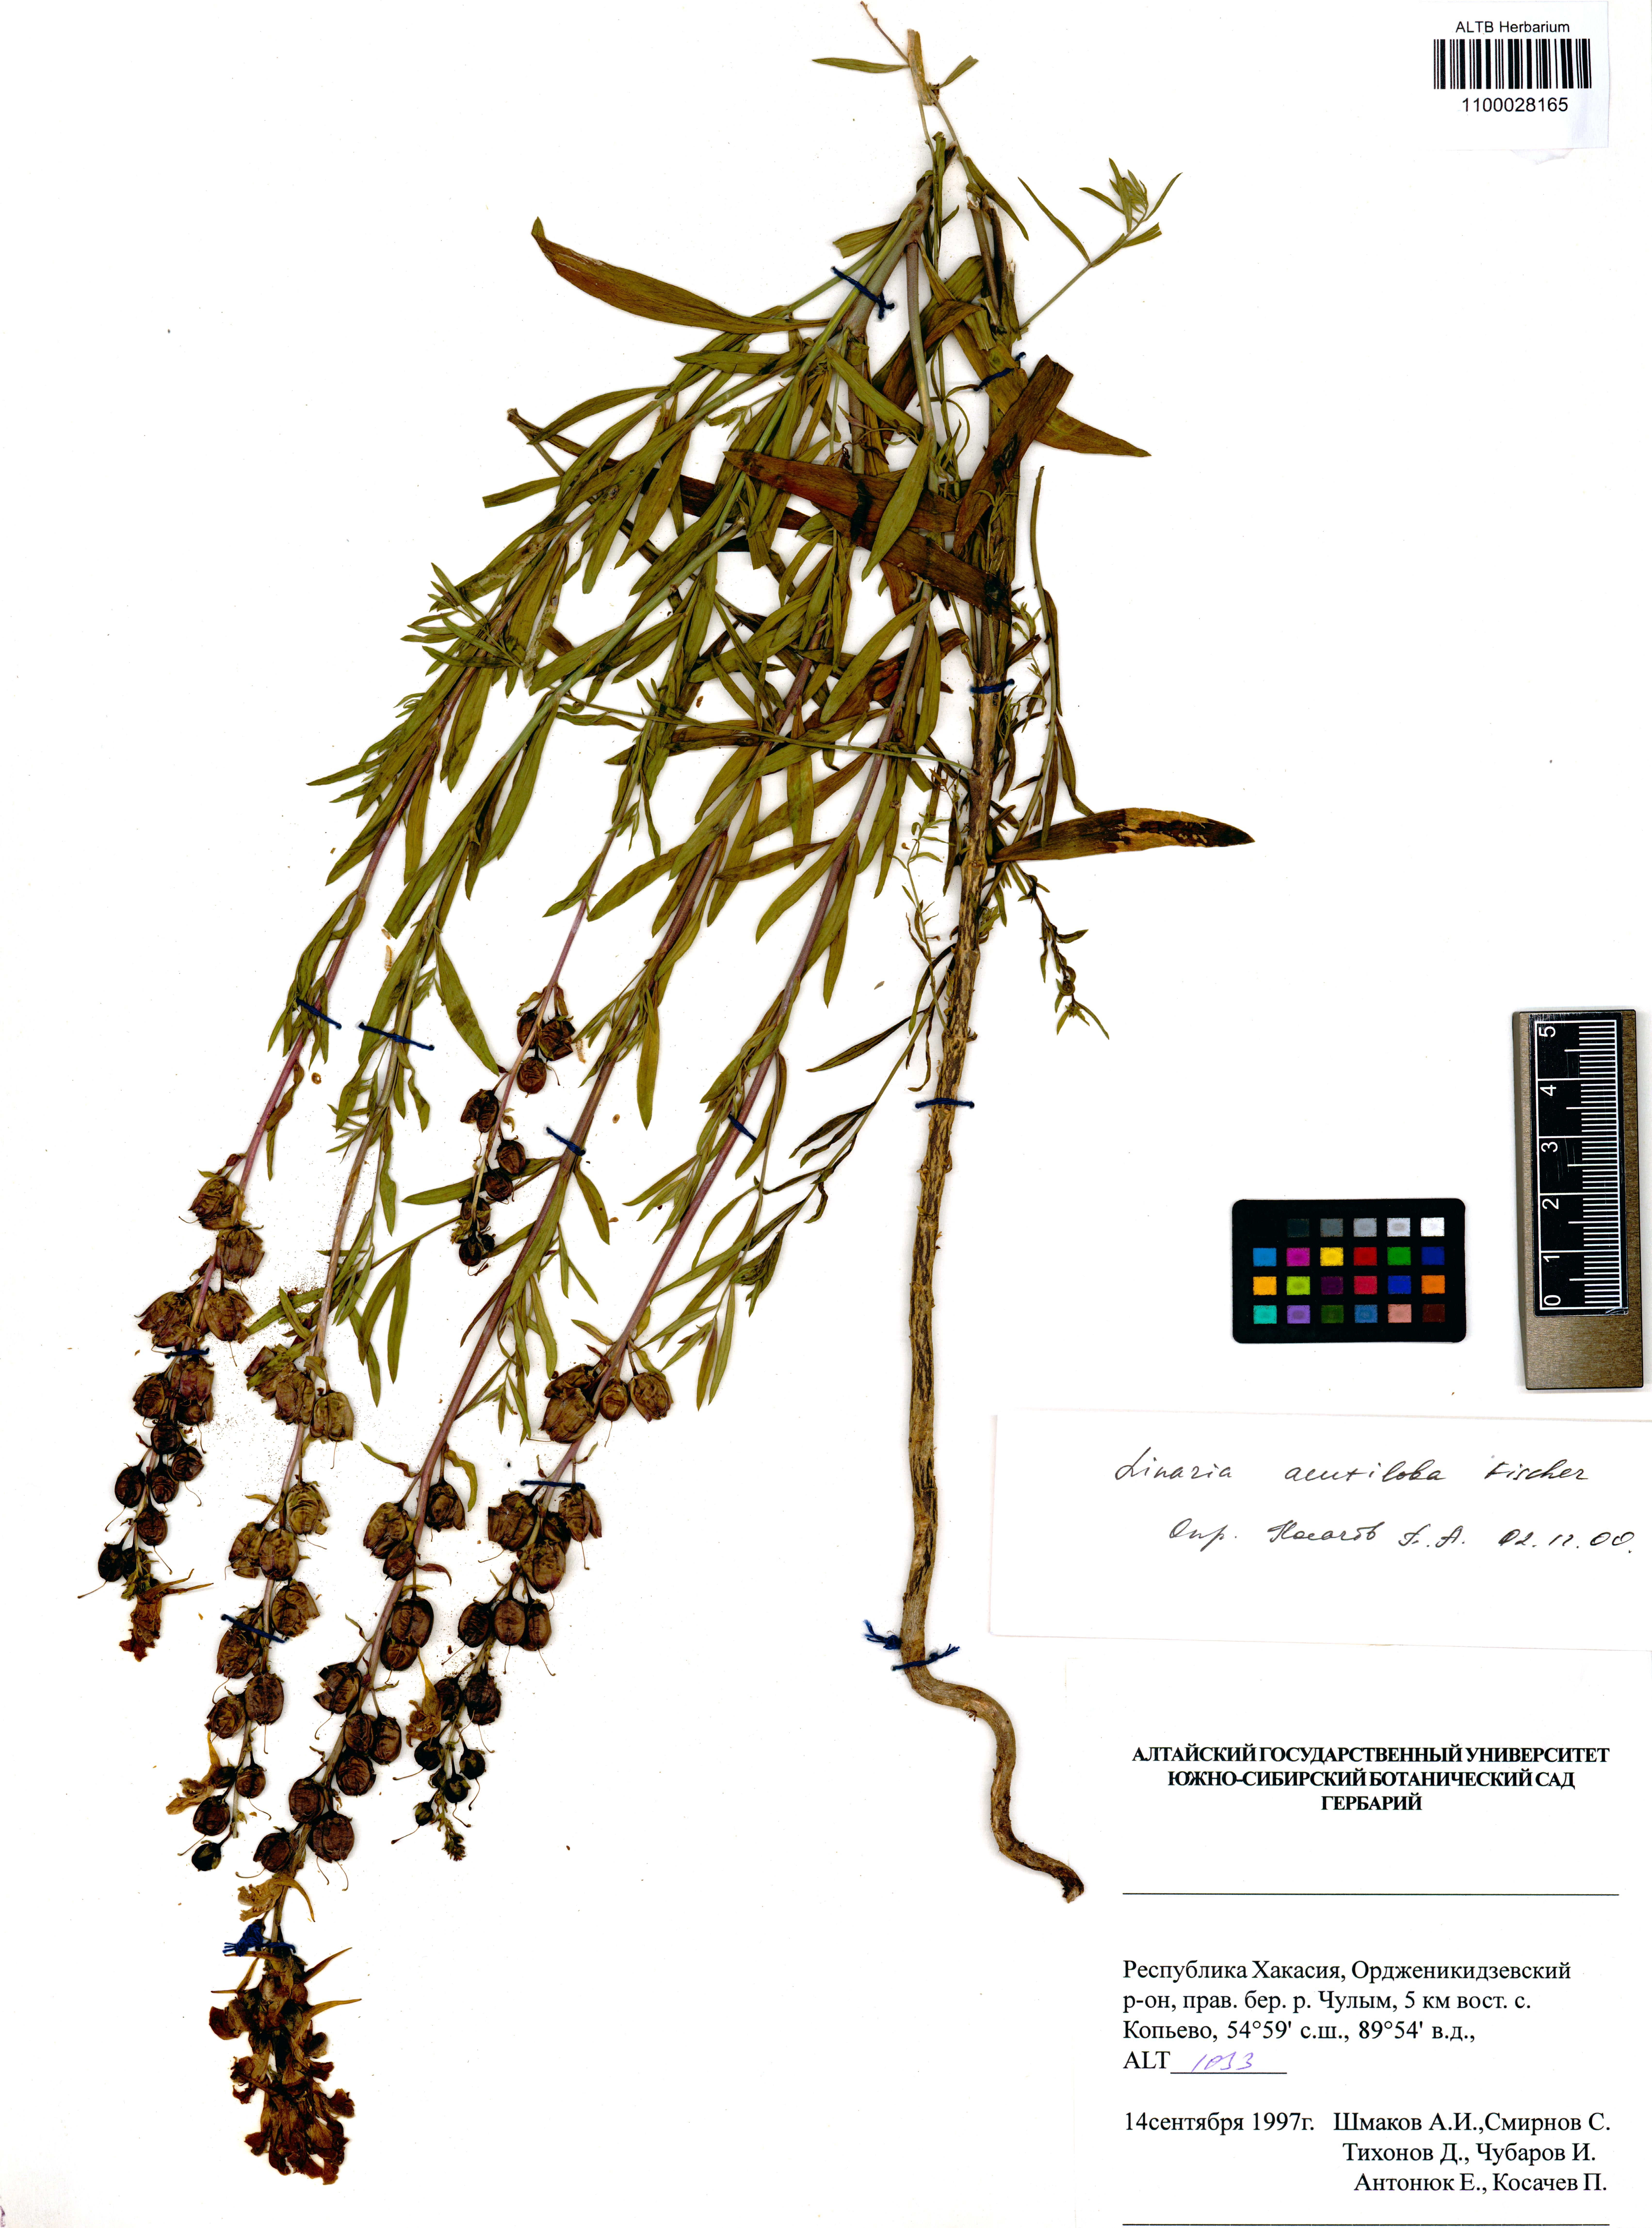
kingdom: Plantae
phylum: Tracheophyta
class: Magnoliopsida
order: Lamiales
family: Plantaginaceae
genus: Linaria
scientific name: Linaria acutiloba
